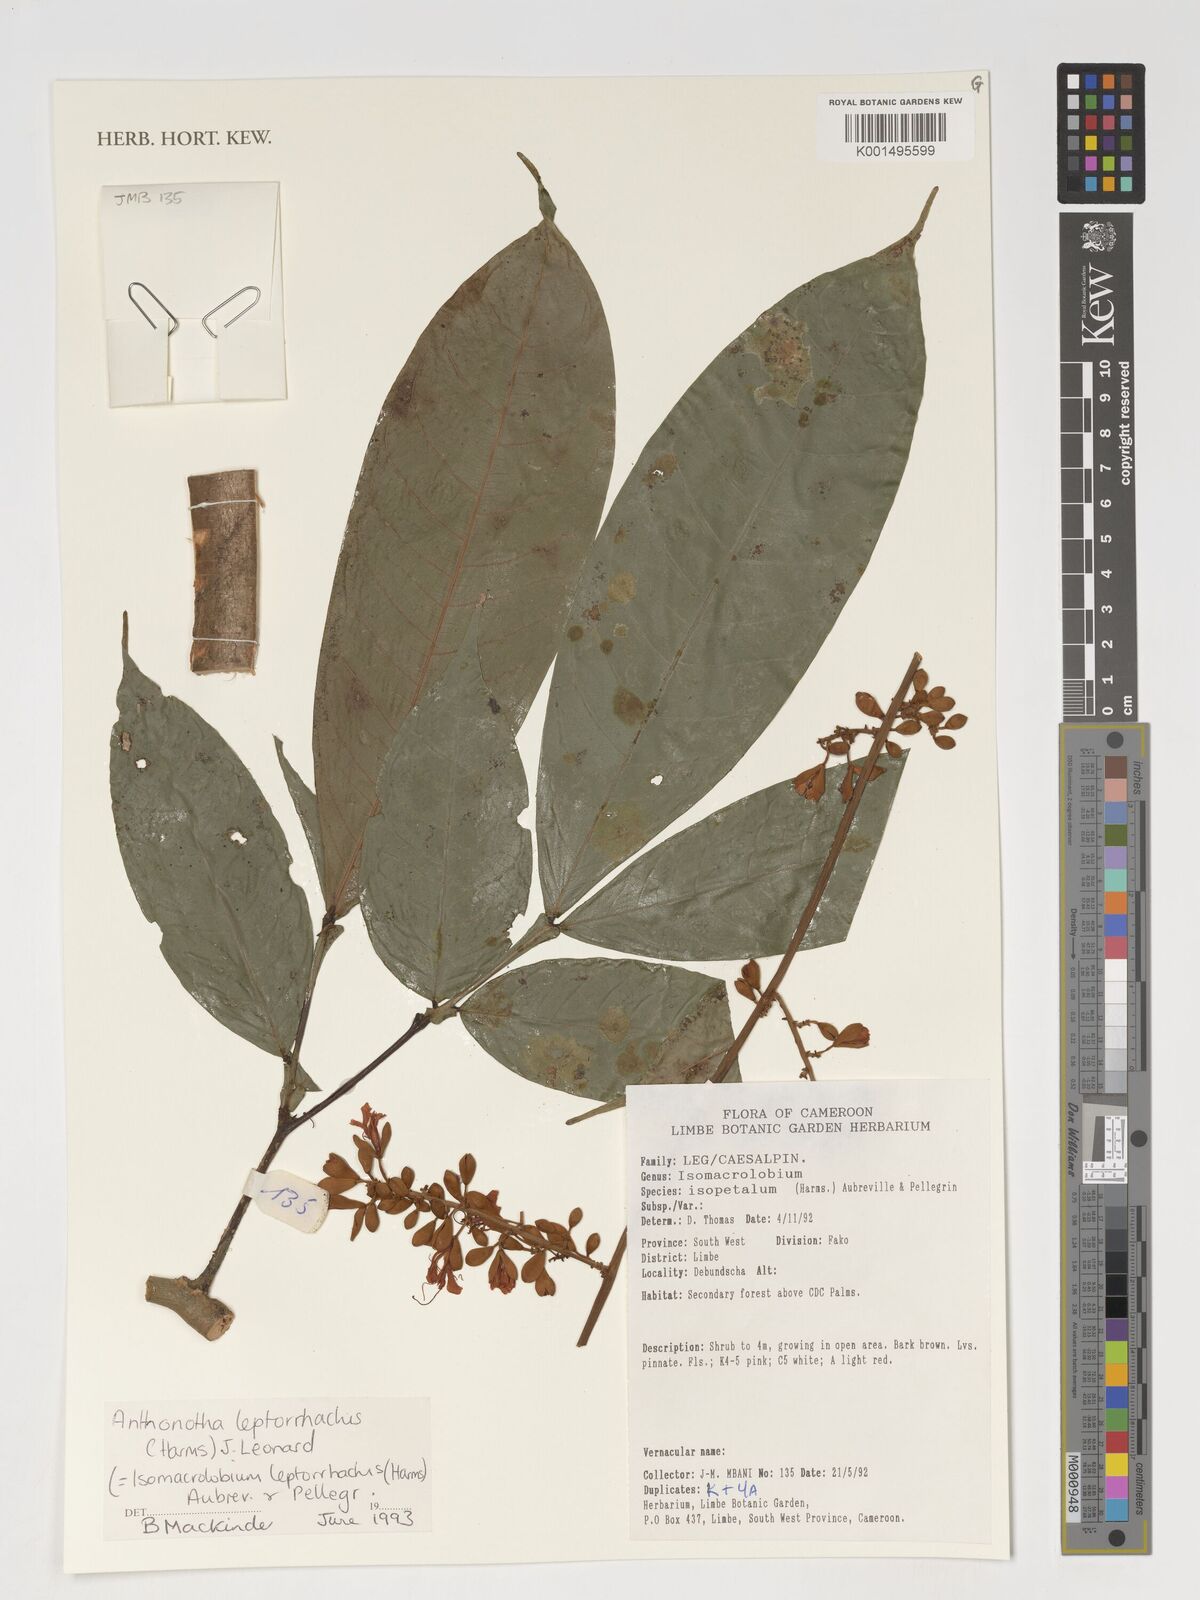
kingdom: Plantae
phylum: Tracheophyta
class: Magnoliopsida
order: Fabales
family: Fabaceae
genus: Englerodendron
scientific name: Englerodendron leptorrhachis
